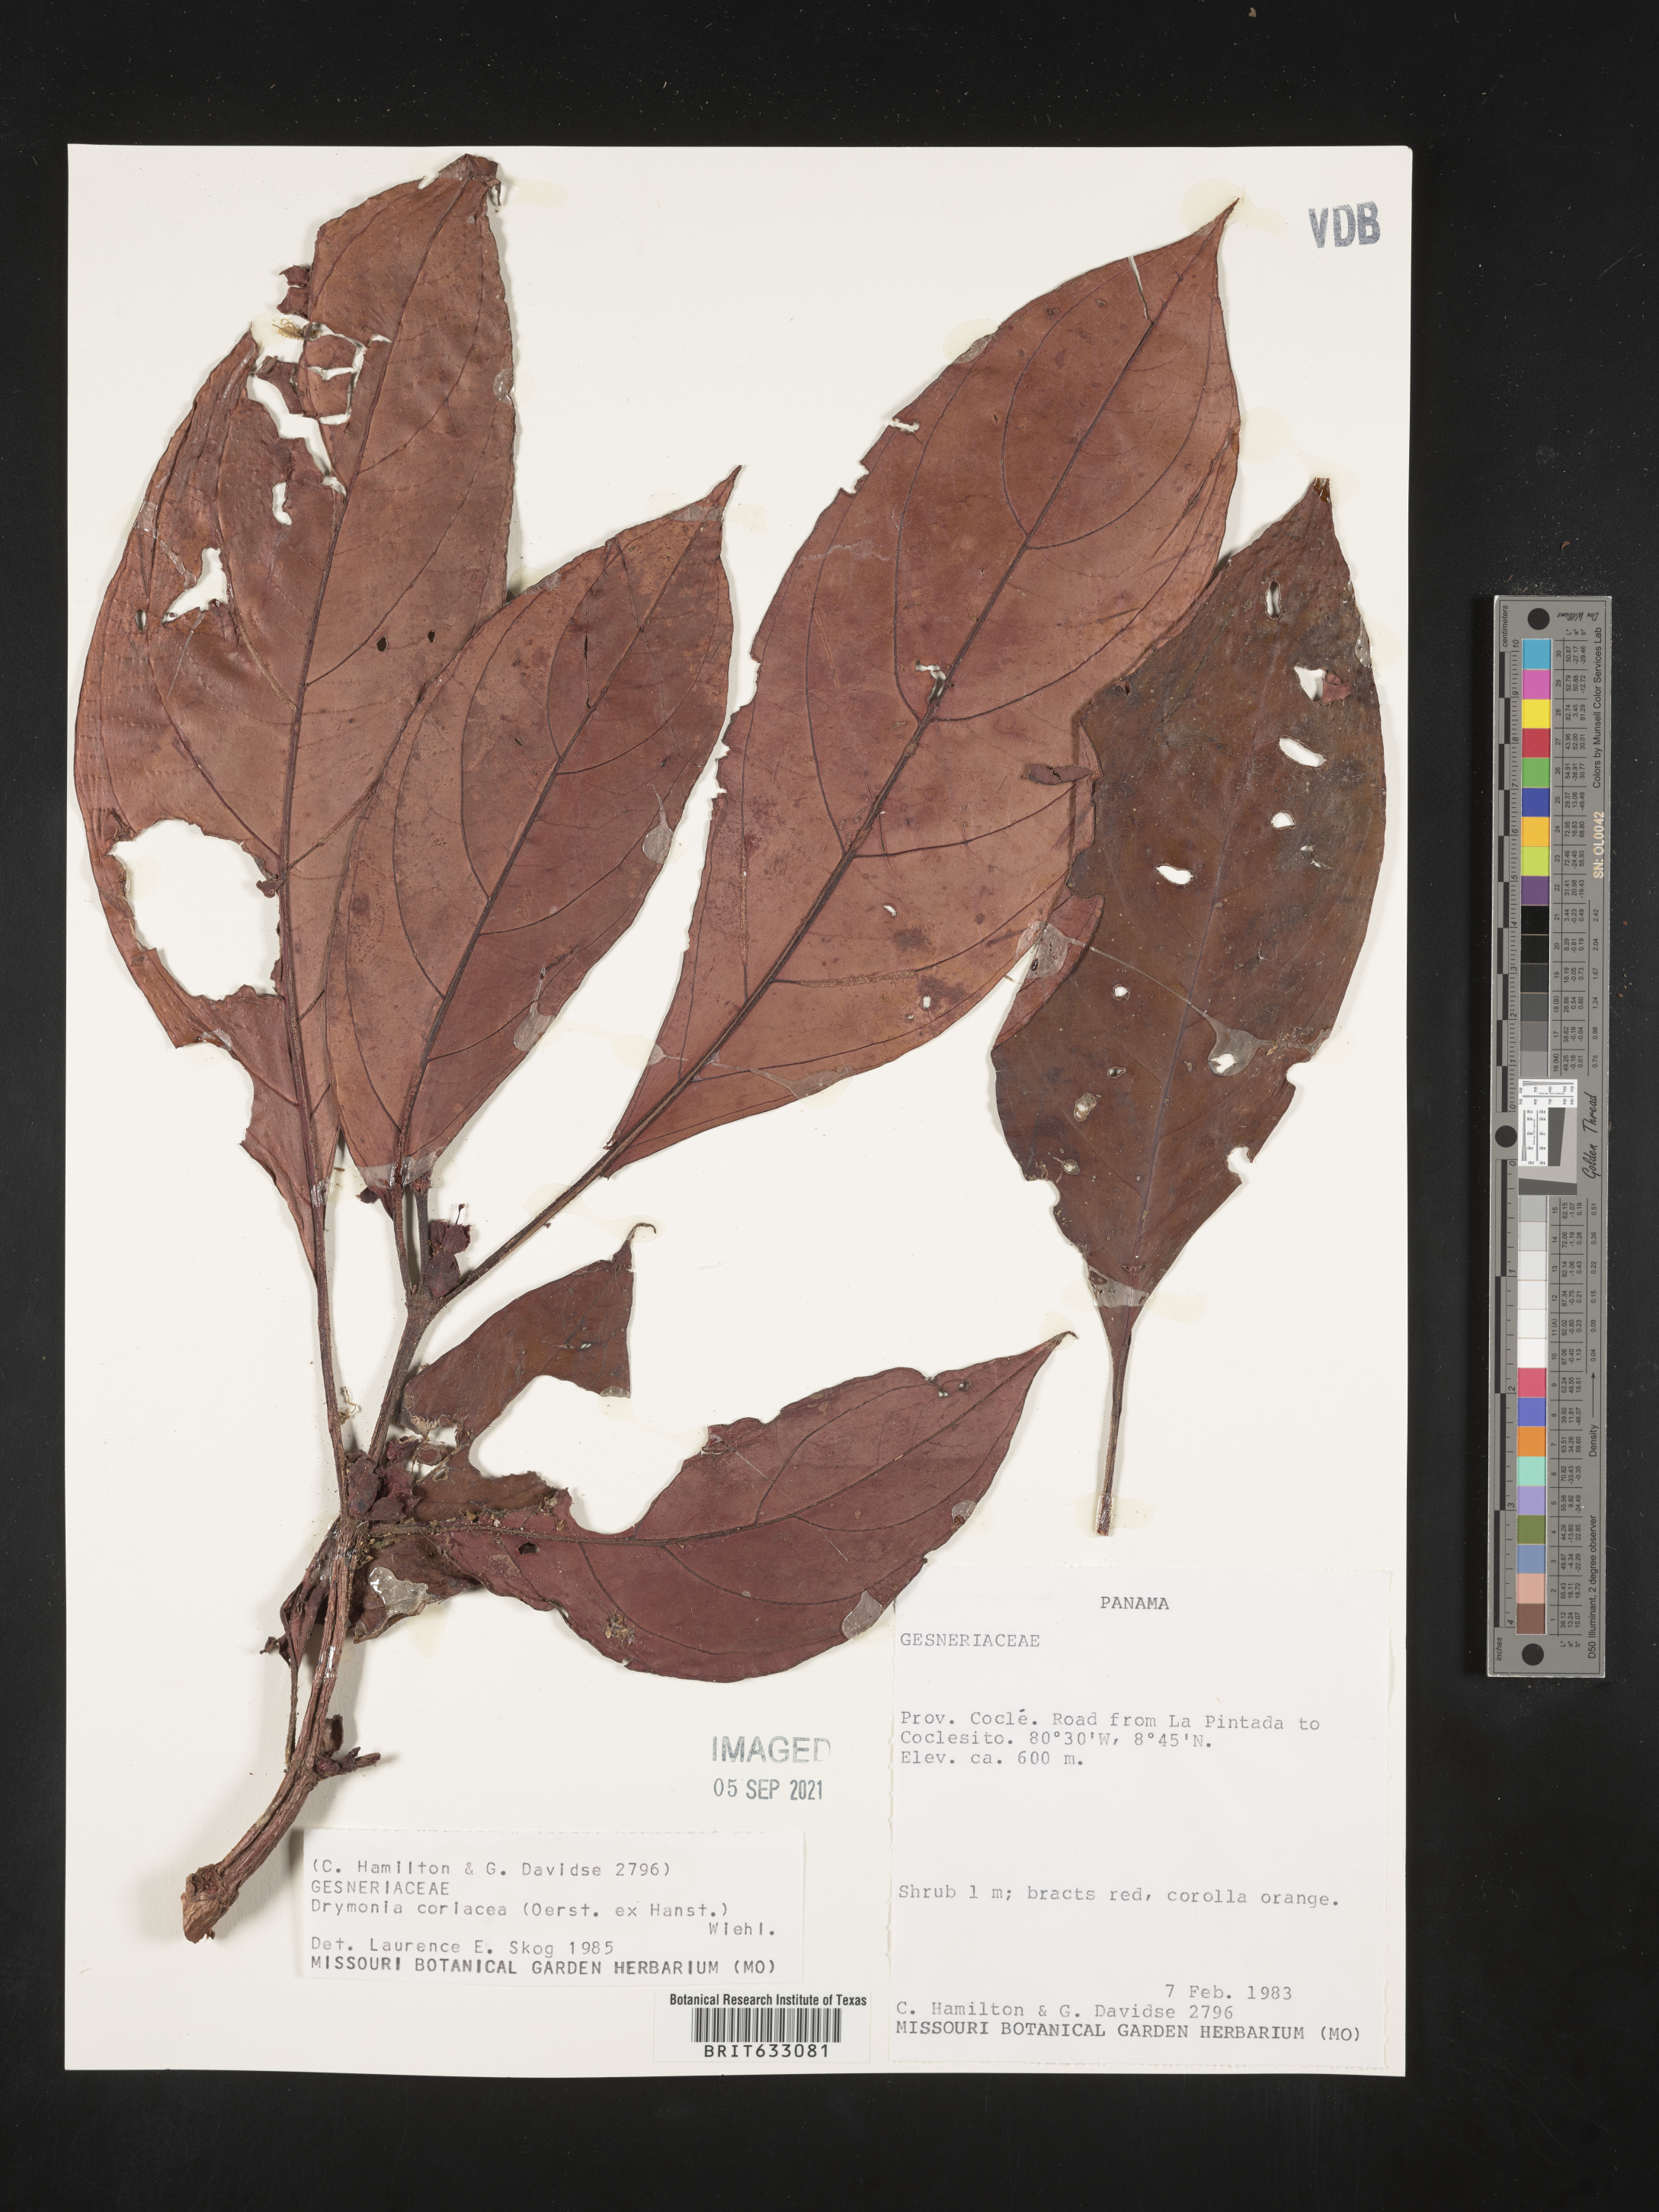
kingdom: Plantae
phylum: Tracheophyta
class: Magnoliopsida
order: Lamiales
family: Gesneriaceae
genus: Drymonia
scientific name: Drymonia
